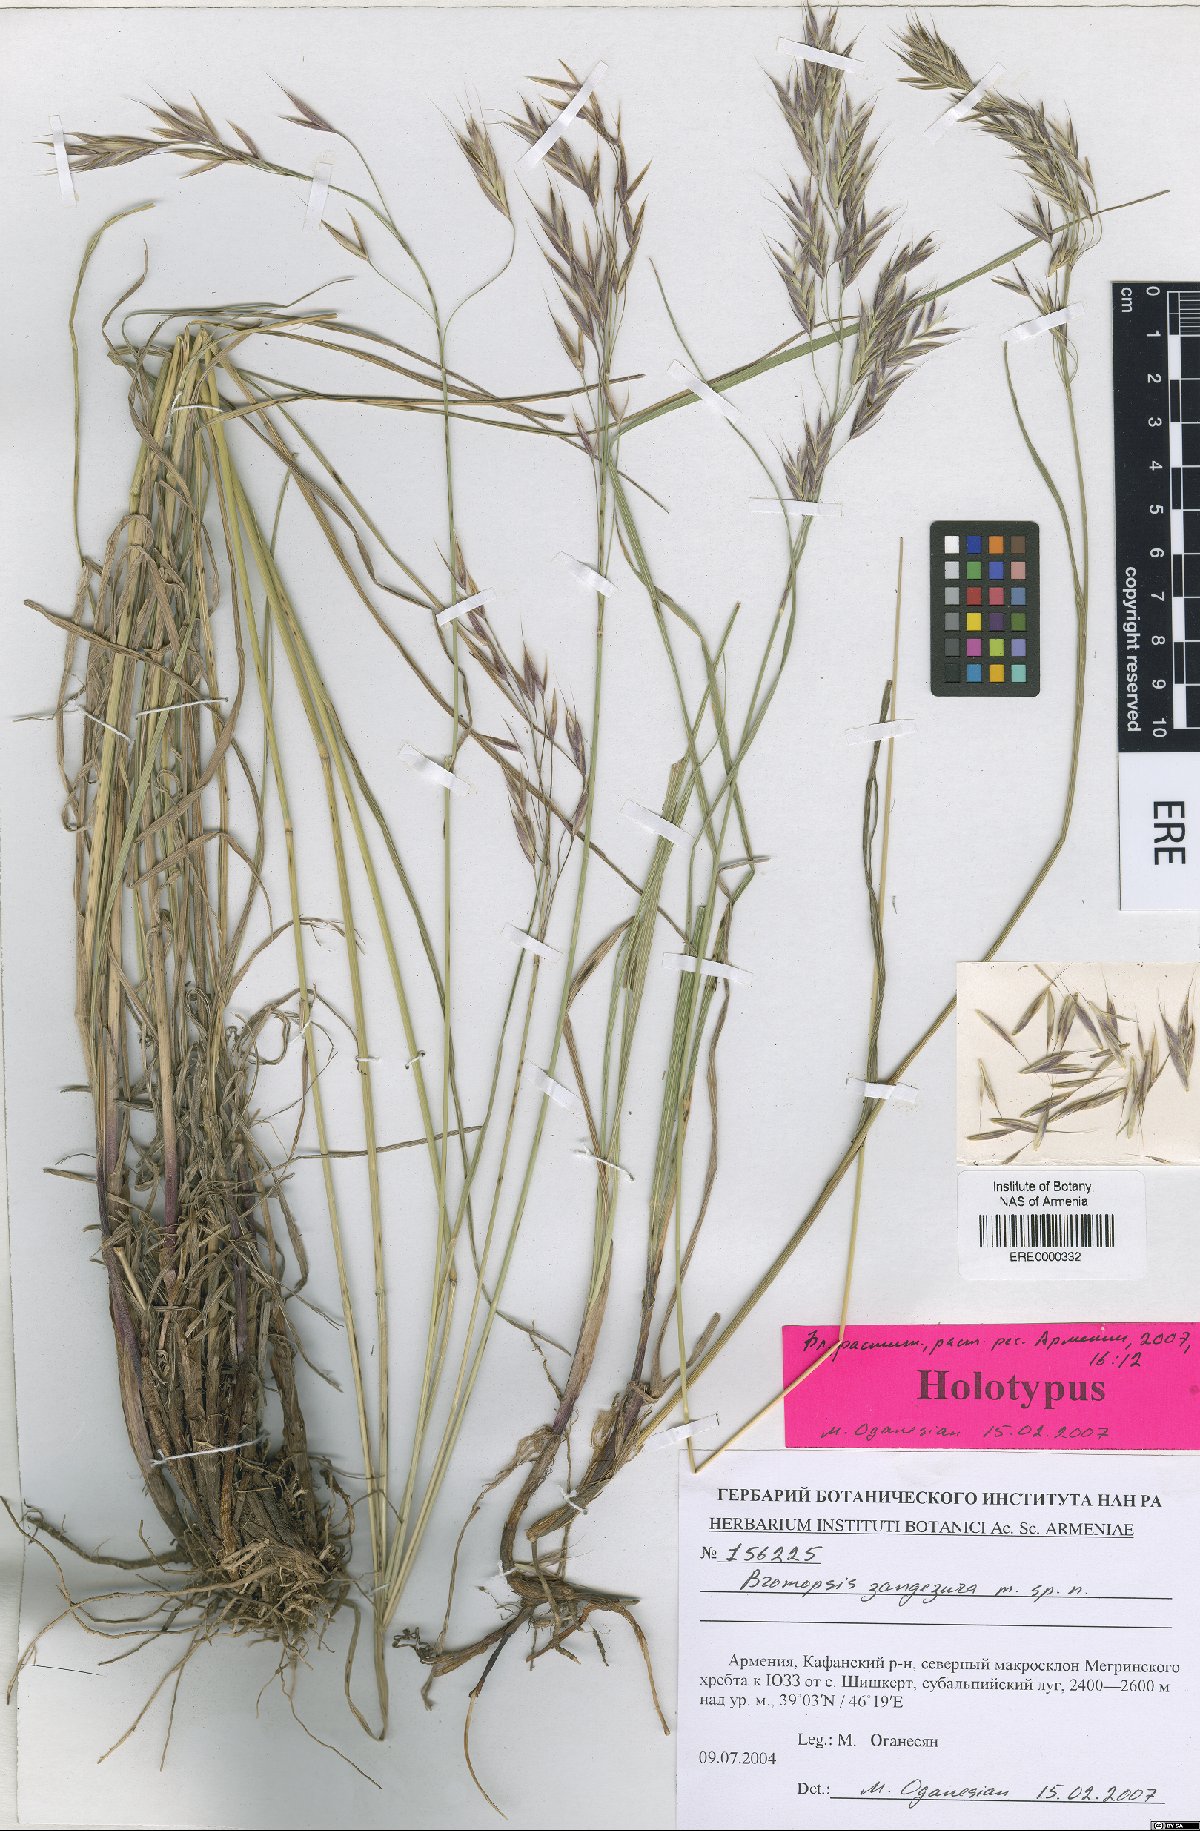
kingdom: Plantae
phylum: Tracheophyta
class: Liliopsida
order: Poales
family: Poaceae
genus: Bromus
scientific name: Bromus erectus
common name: Erect brome
